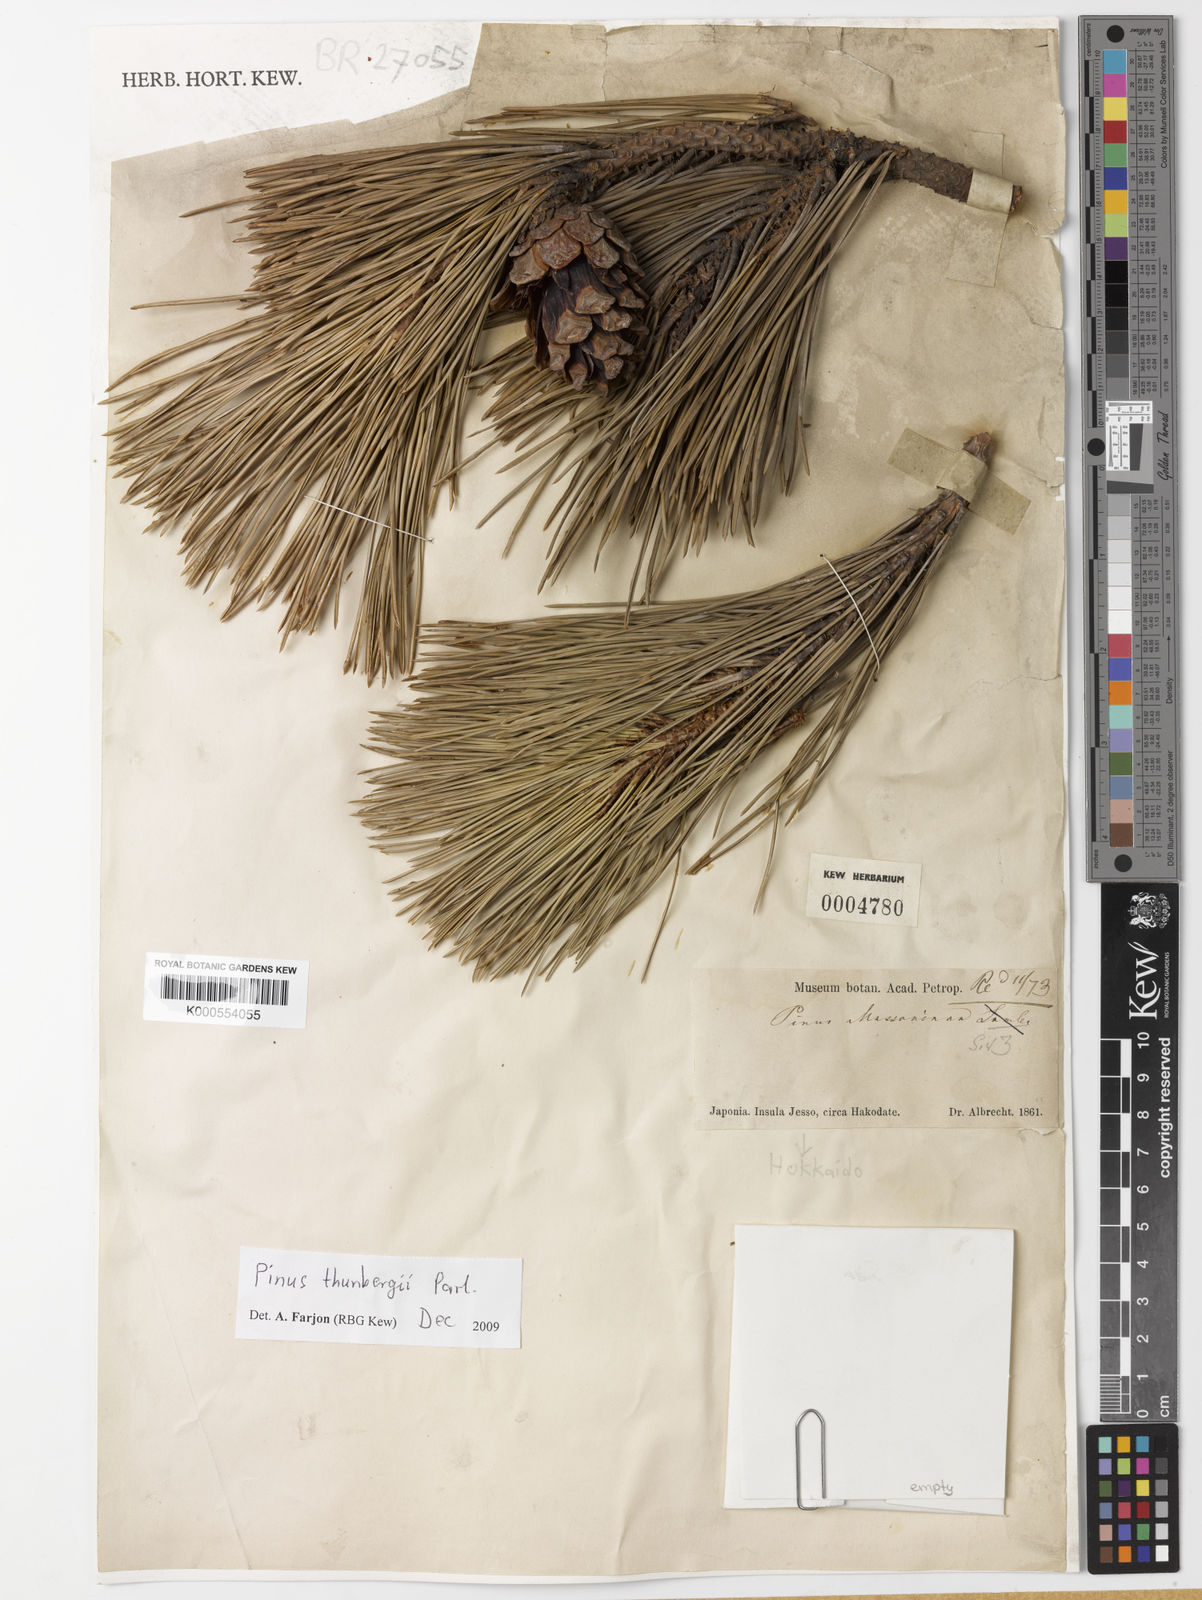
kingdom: Plantae
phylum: Tracheophyta
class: Pinopsida
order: Pinales
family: Pinaceae
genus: Pinus
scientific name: Pinus thunbergii
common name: Japanese black pine
